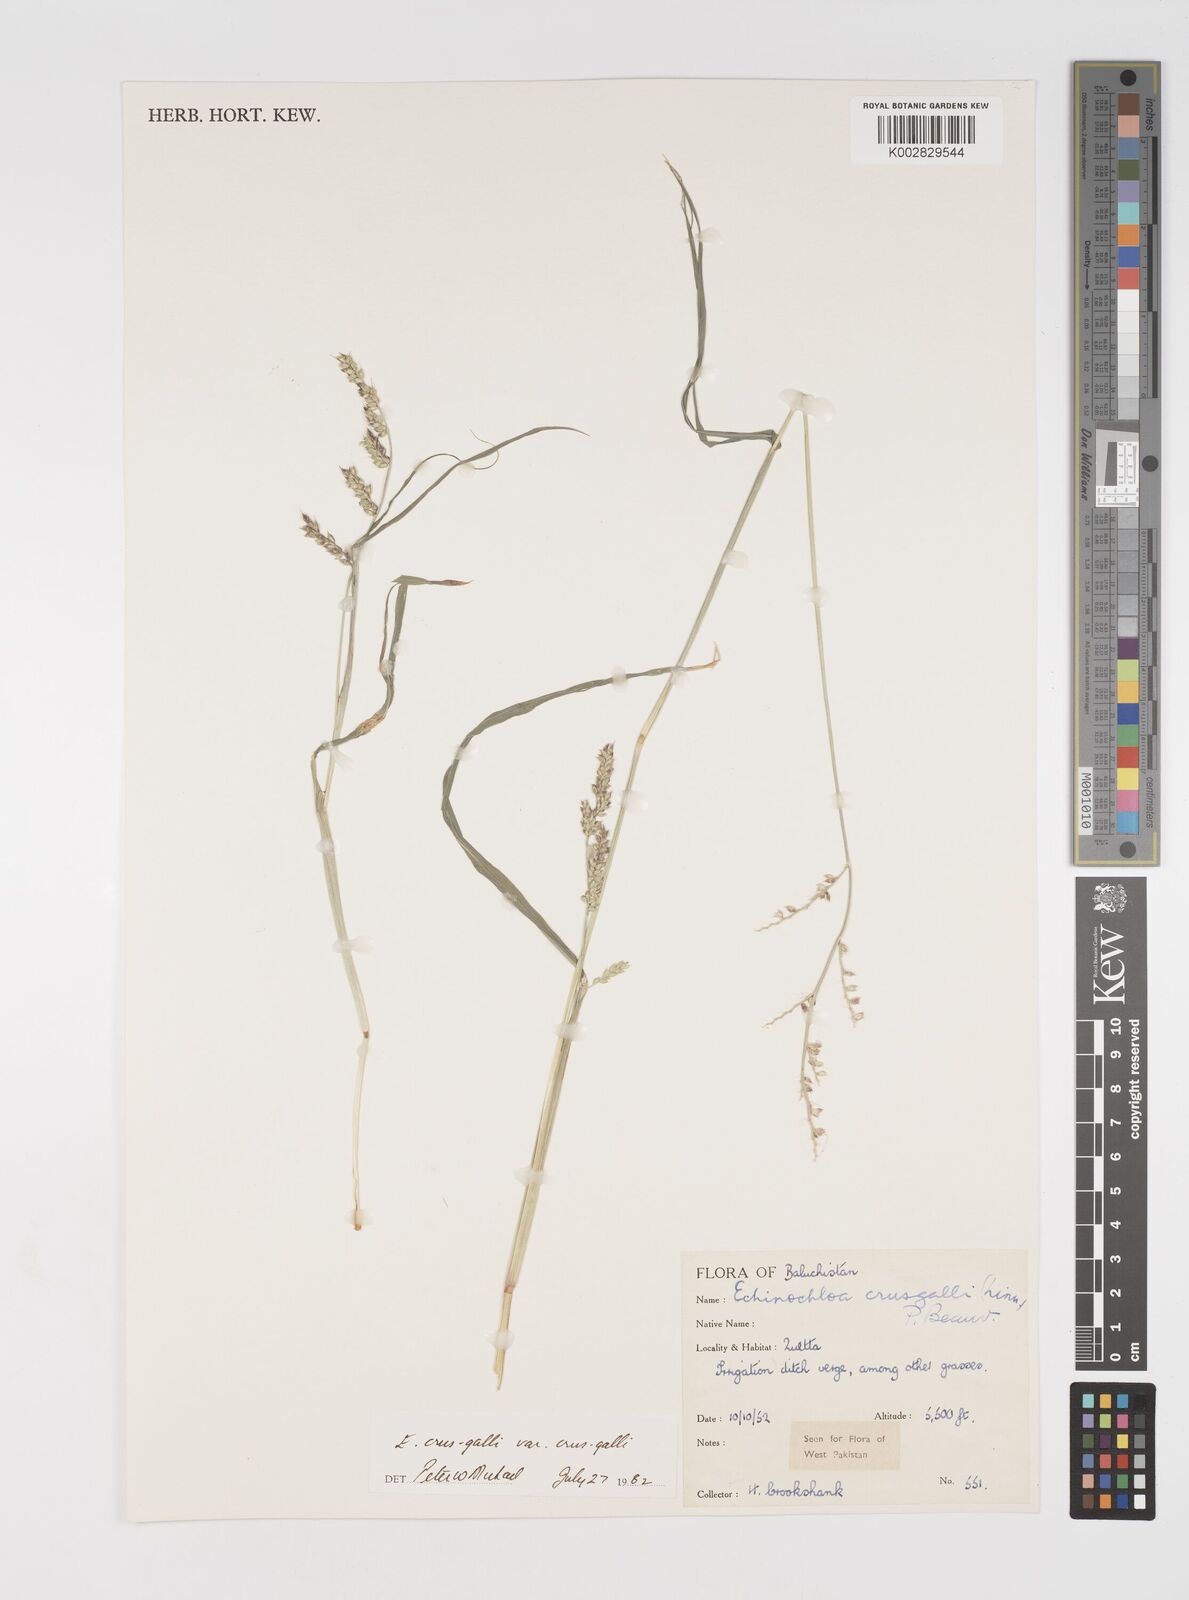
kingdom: Plantae
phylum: Tracheophyta
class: Liliopsida
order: Poales
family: Poaceae
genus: Echinochloa
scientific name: Echinochloa crus-galli
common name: Cockspur
